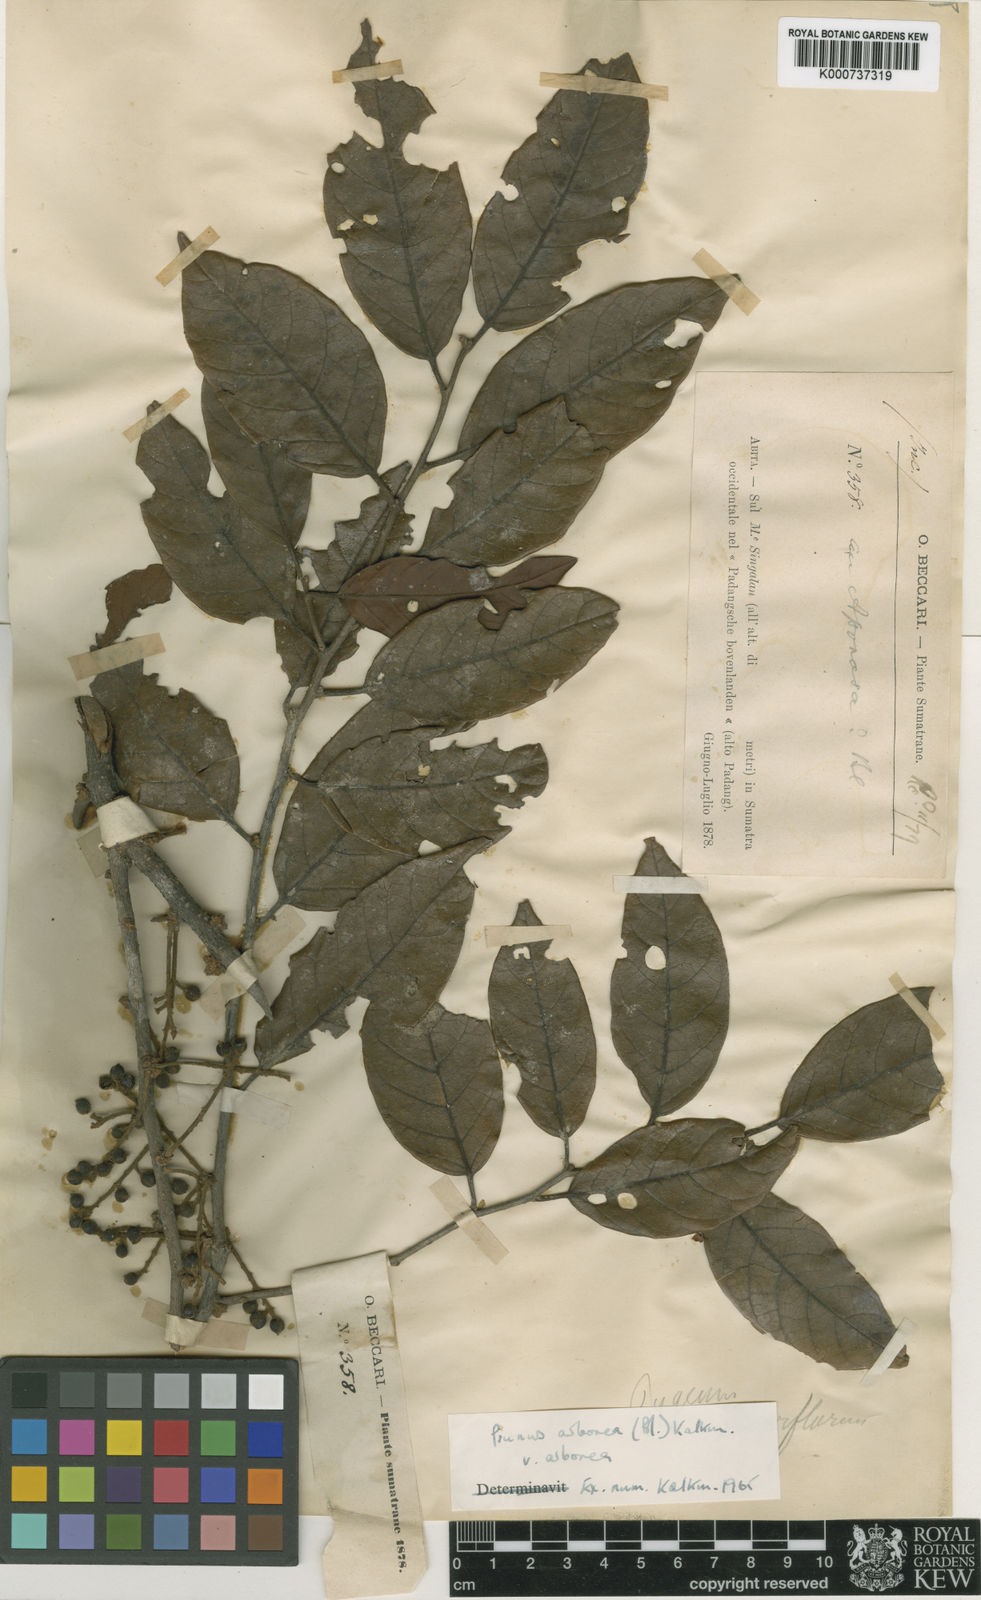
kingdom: Plantae
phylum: Tracheophyta
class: Magnoliopsida
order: Rosales
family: Rosaceae
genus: Prunus
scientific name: Prunus arborea
